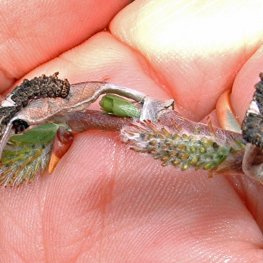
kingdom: Animalia
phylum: Arthropoda
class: Insecta
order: Lepidoptera
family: Nymphalidae
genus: Limenitis
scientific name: Limenitis archippus
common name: Viceroy
